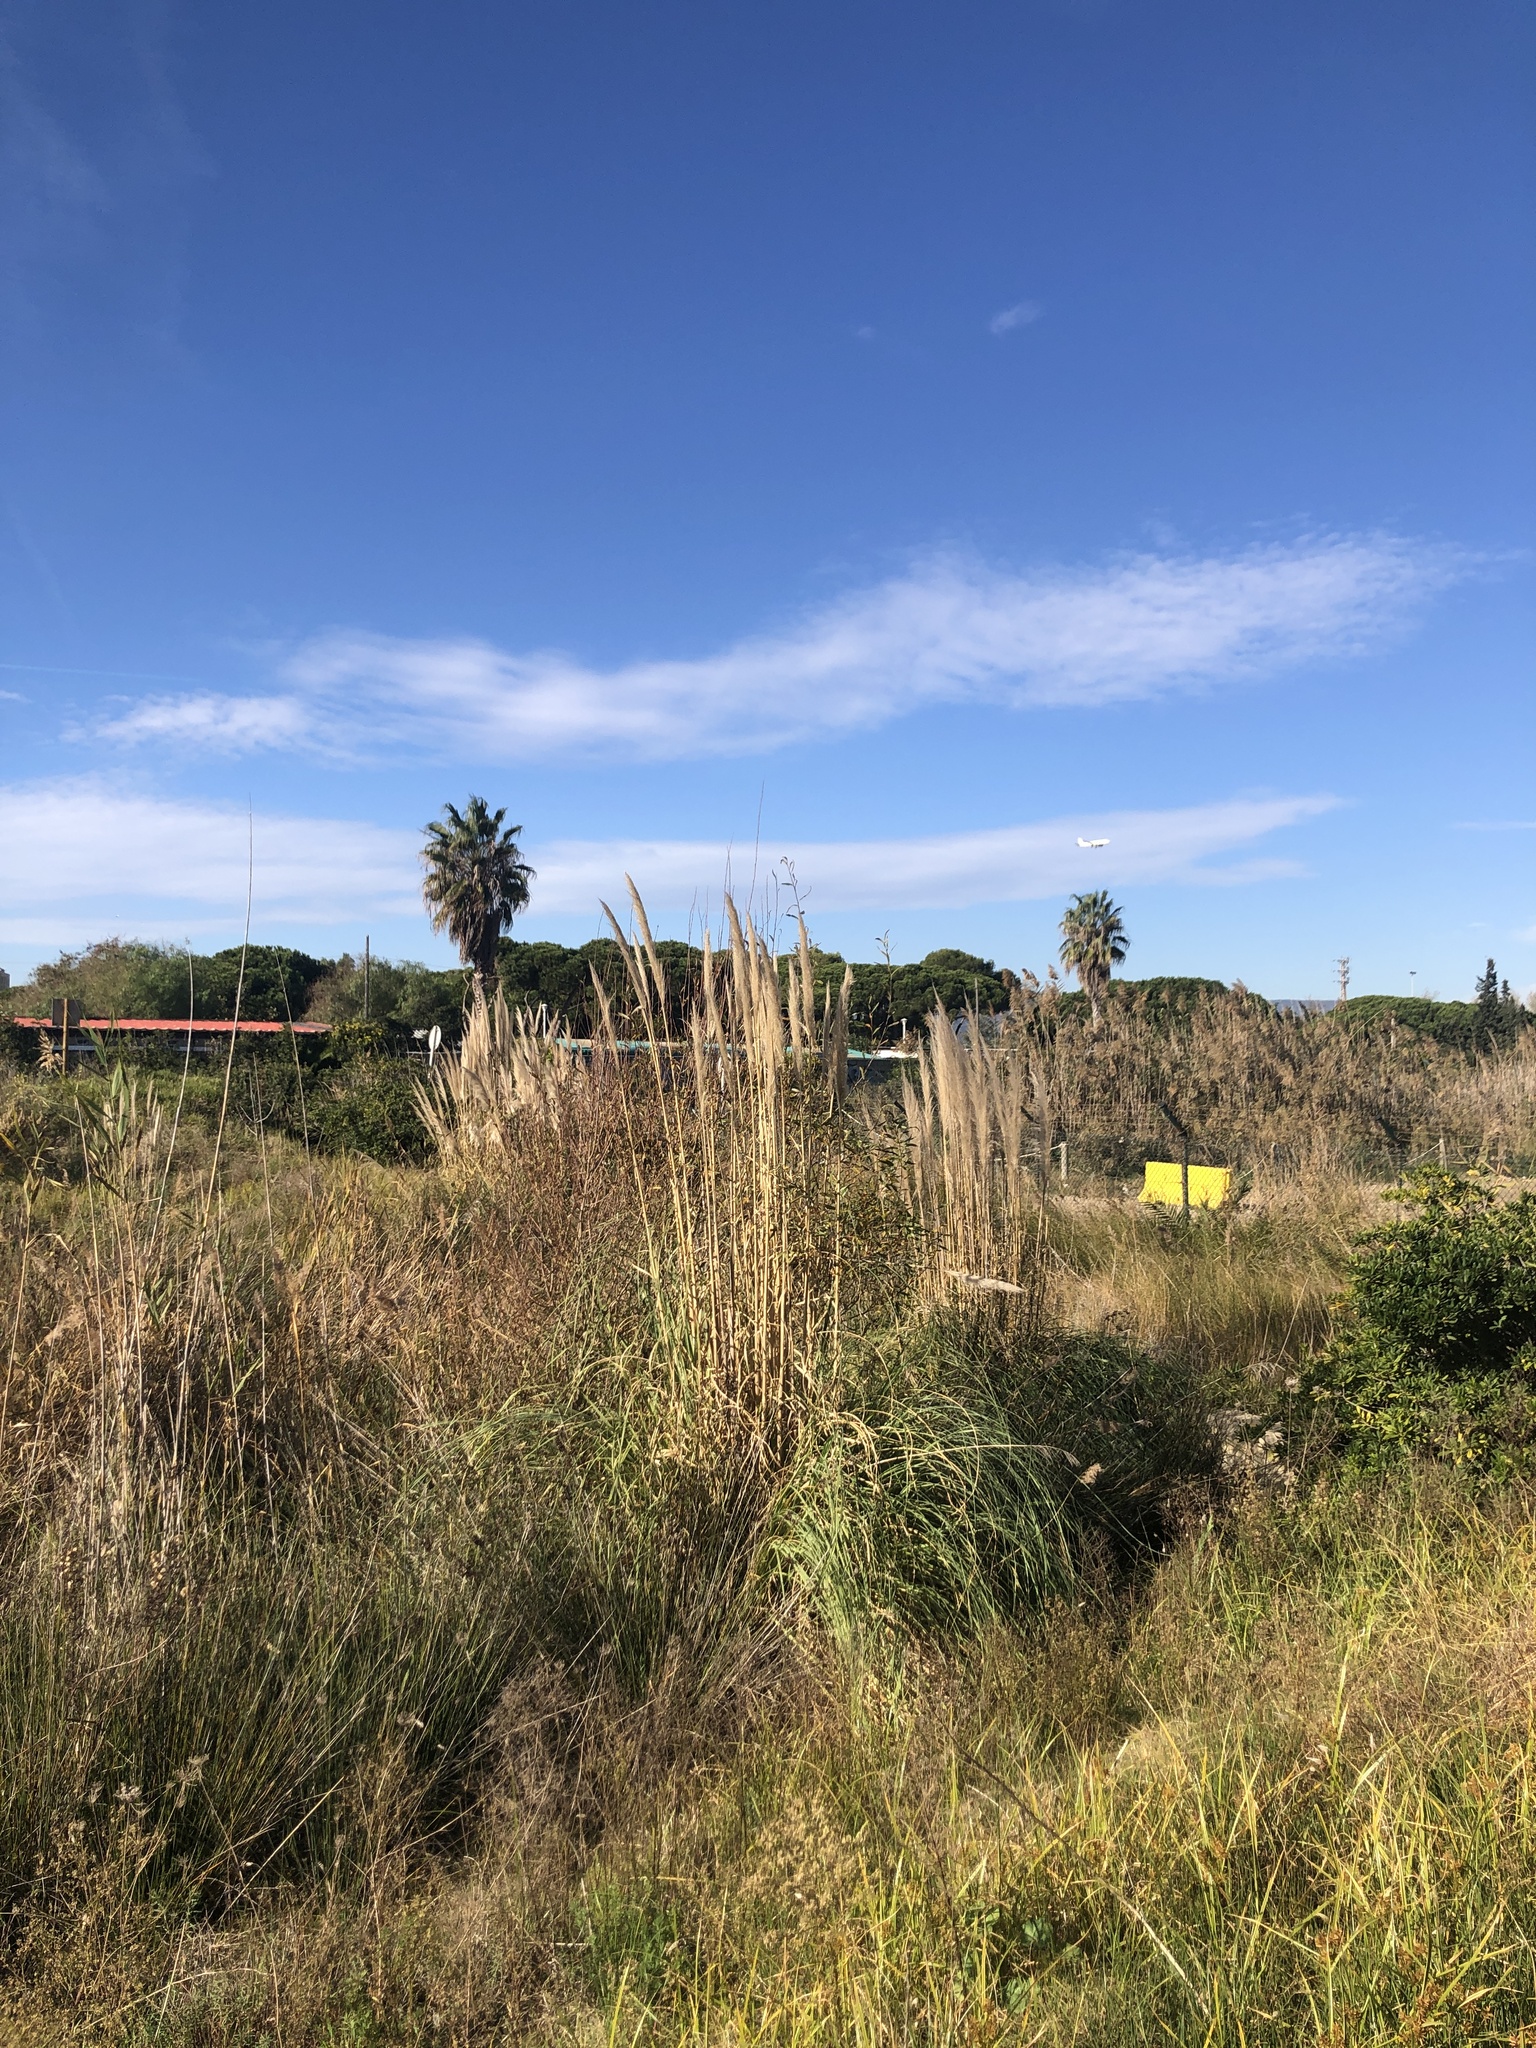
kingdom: Plantae
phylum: Tracheophyta
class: Liliopsida
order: Poales
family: Poaceae
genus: Cortaderia
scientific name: Cortaderia selloana
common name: Uruguayan pampas grass
